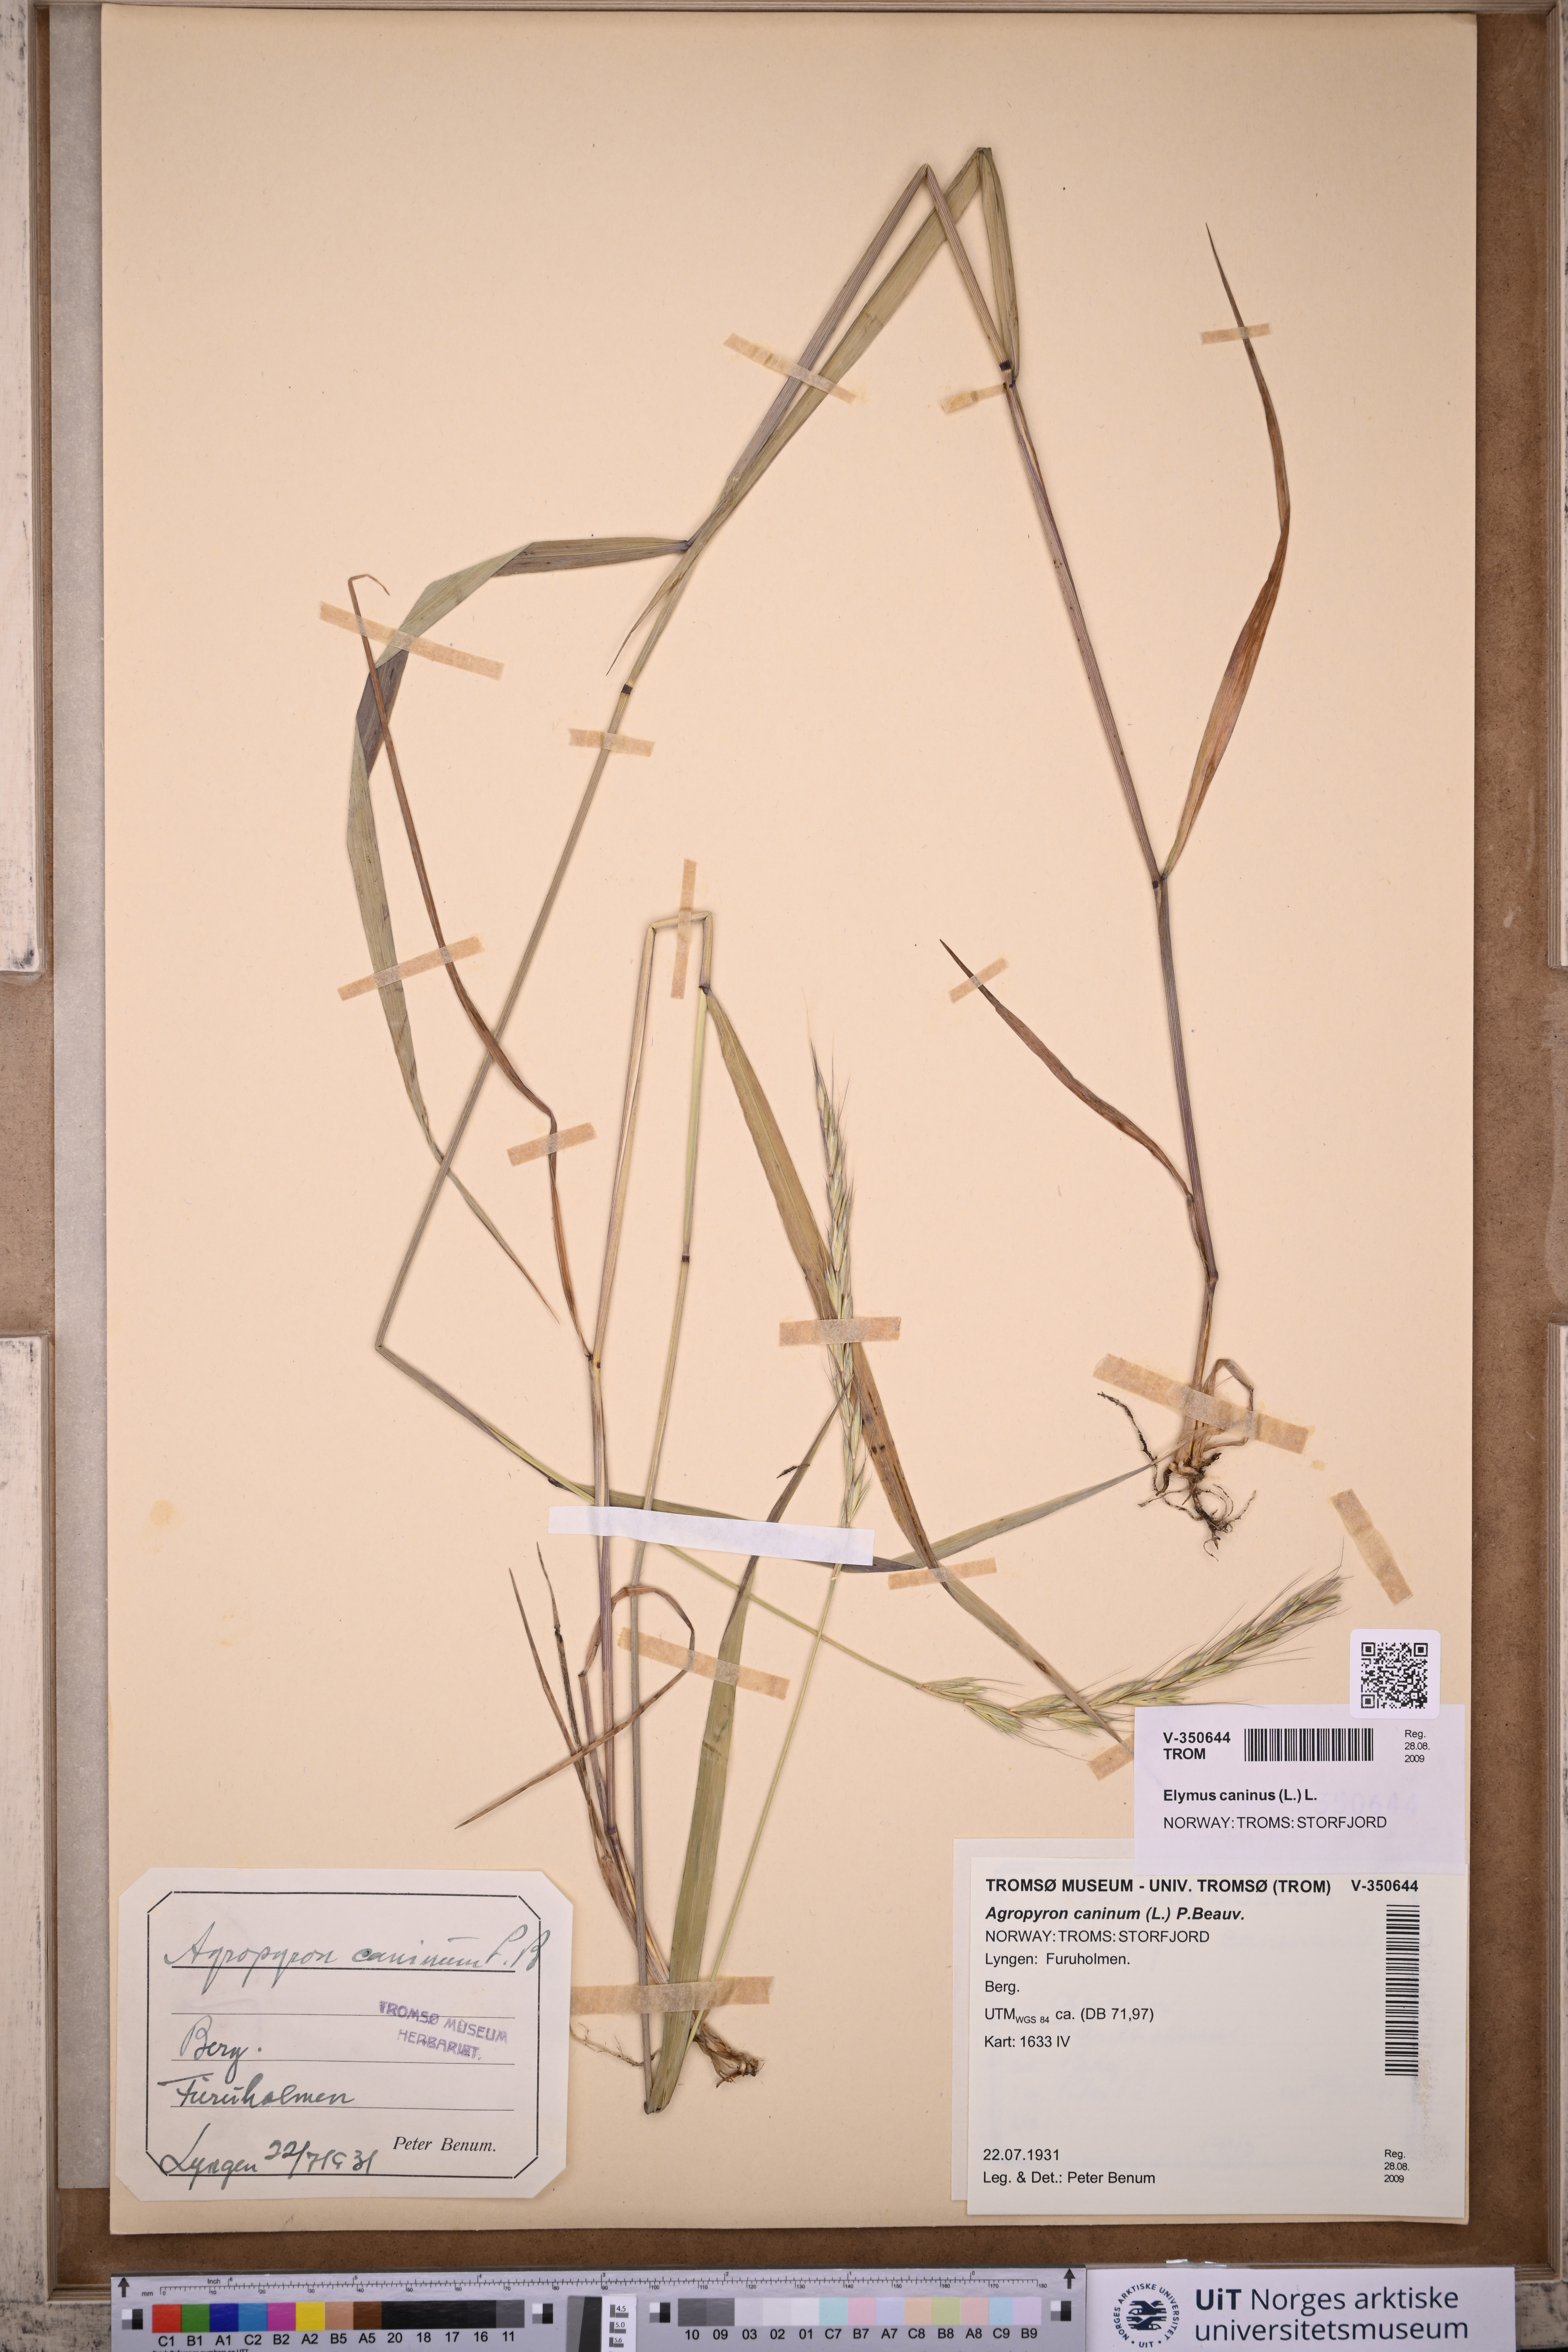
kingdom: Plantae
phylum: Tracheophyta
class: Liliopsida
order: Poales
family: Poaceae
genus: Elymus
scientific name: Elymus caninus
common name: Bearded couch
